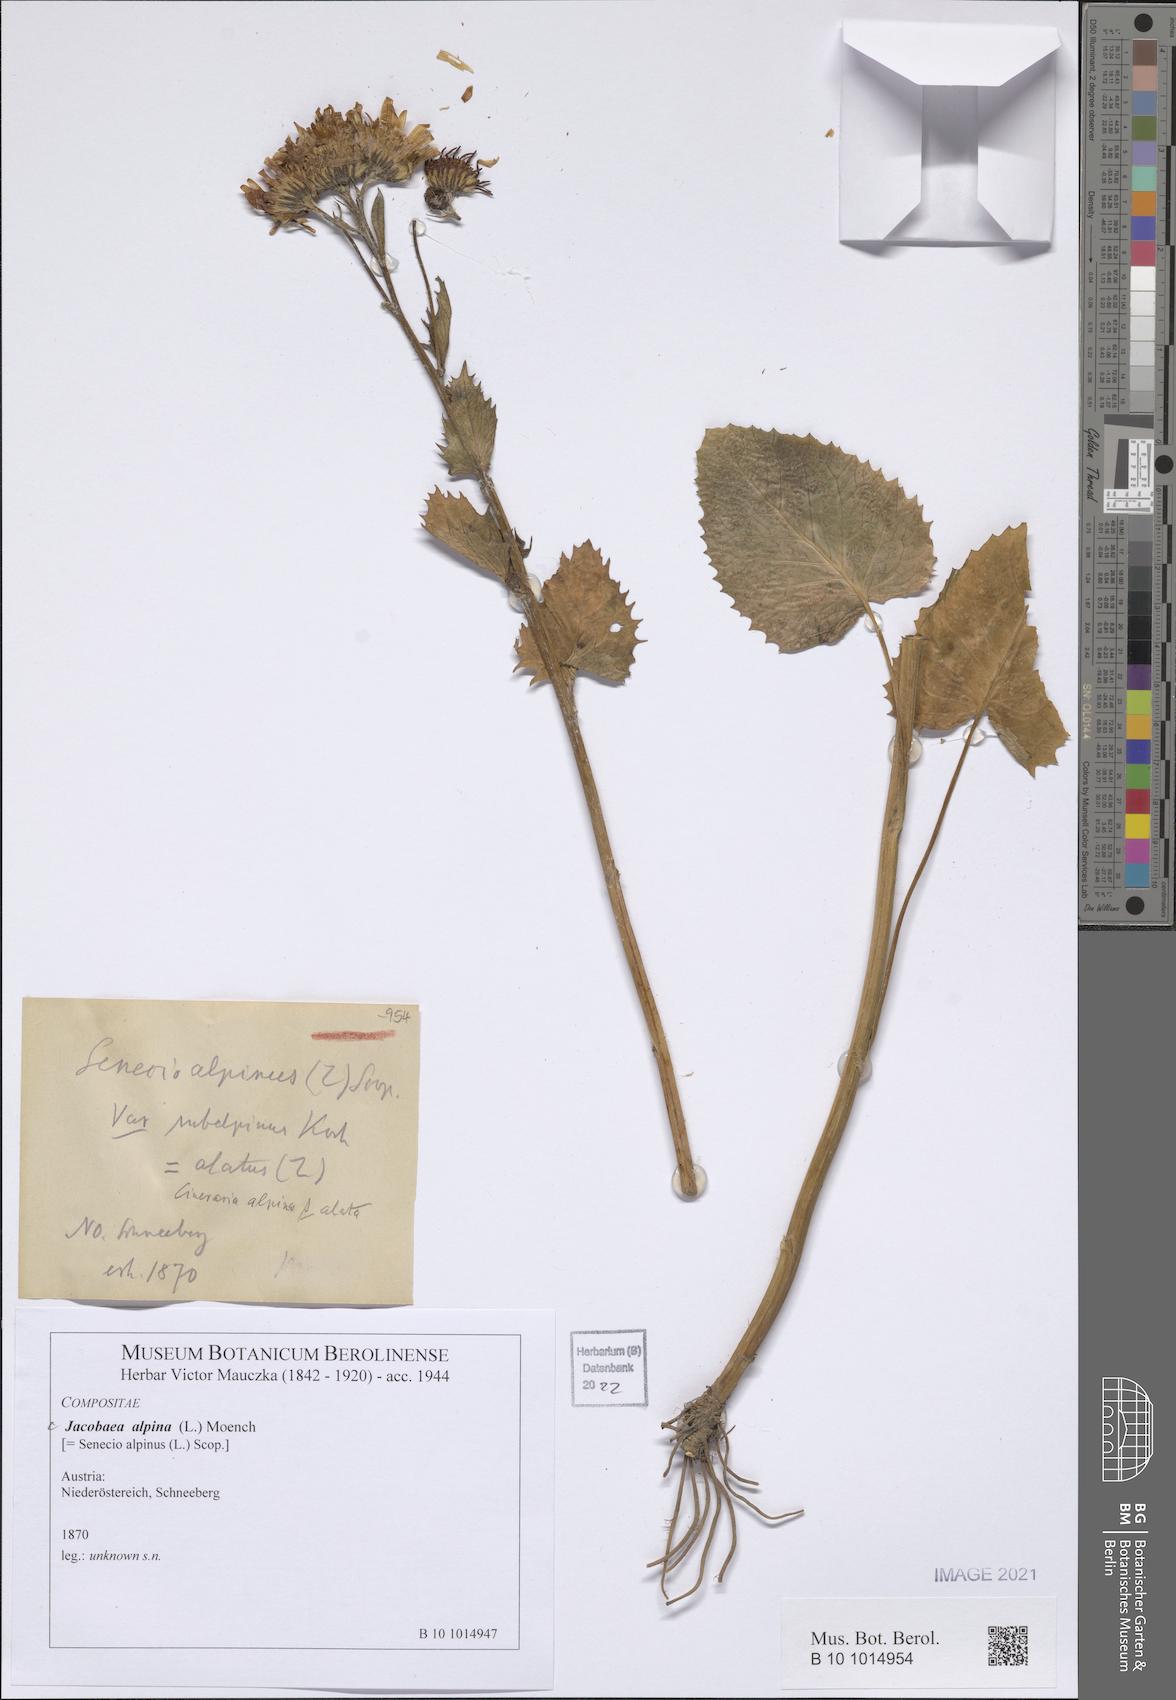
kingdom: Plantae
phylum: Tracheophyta
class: Magnoliopsida
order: Asterales
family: Asteraceae
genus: Jacobaea
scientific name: Jacobaea alpina
